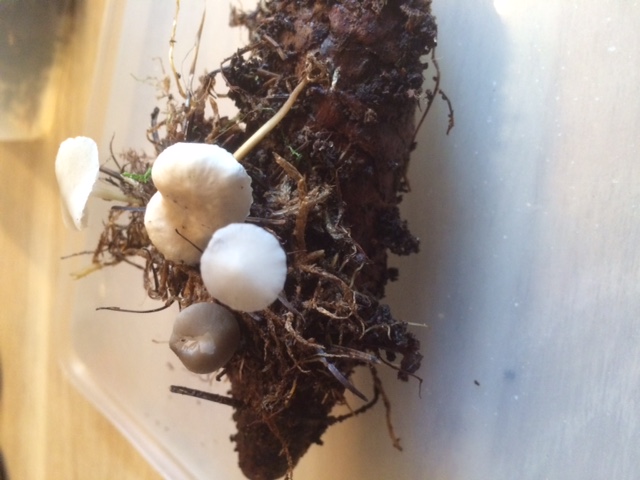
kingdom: Fungi
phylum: Basidiomycota
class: Agaricomycetes
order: Agaricales
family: Physalacriaceae
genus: Strobilurus
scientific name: Strobilurus esculentus
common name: gran-koglehat
